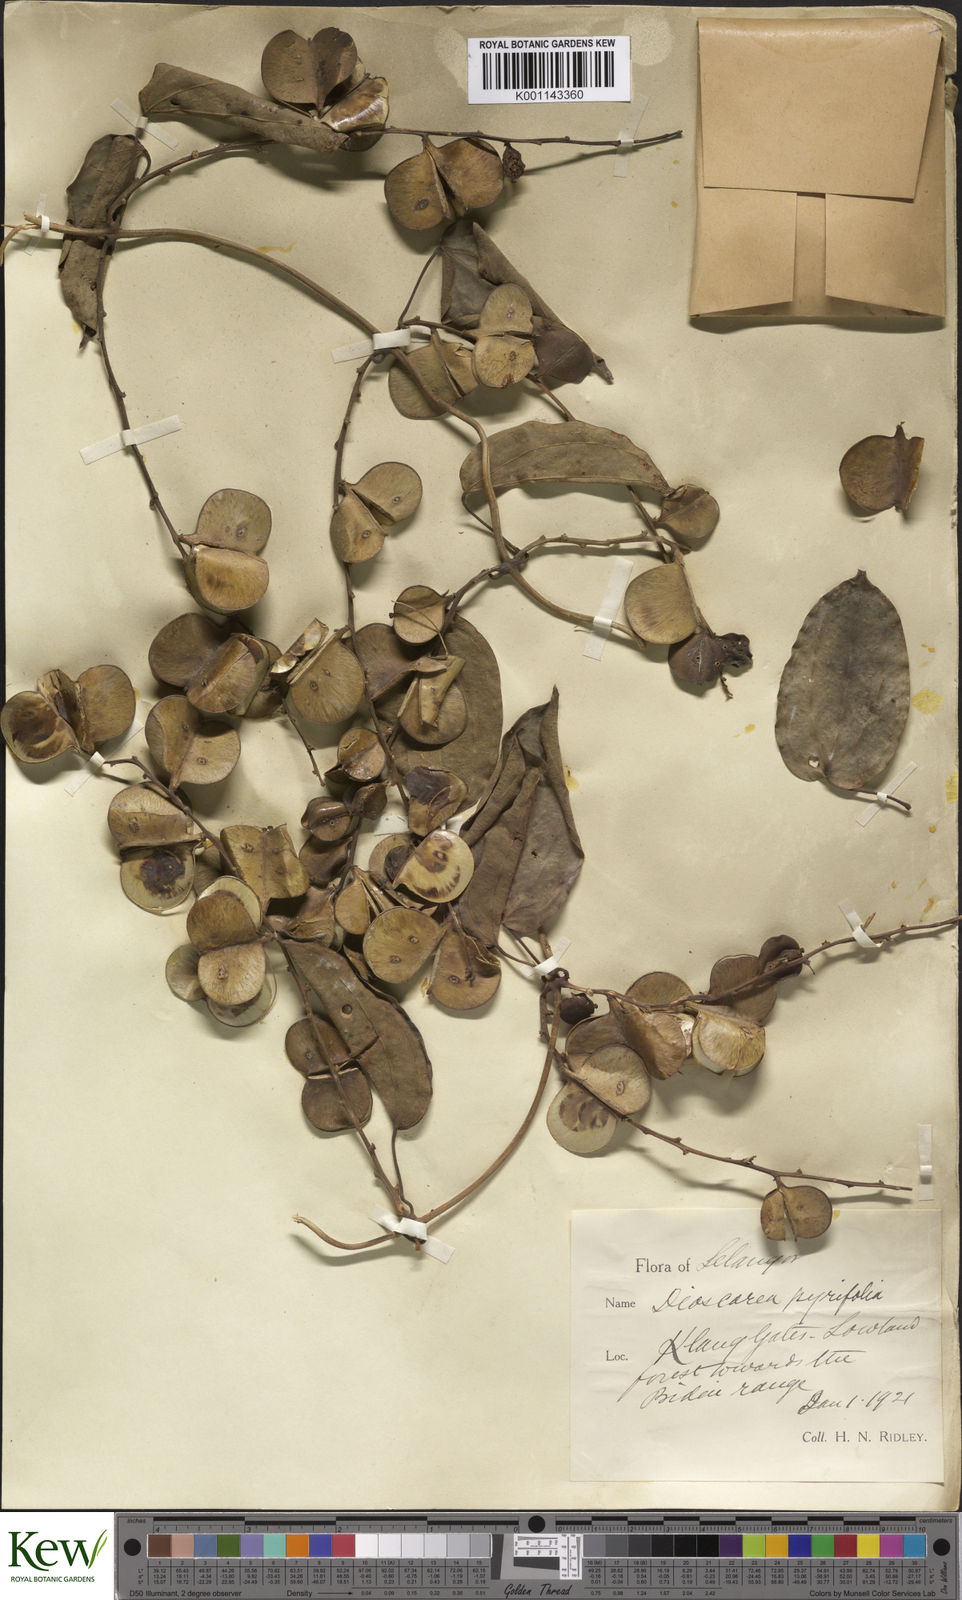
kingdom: Plantae
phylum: Tracheophyta
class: Liliopsida
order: Dioscoreales
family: Dioscoreaceae
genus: Dioscorea
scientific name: Dioscorea pyrifolia
